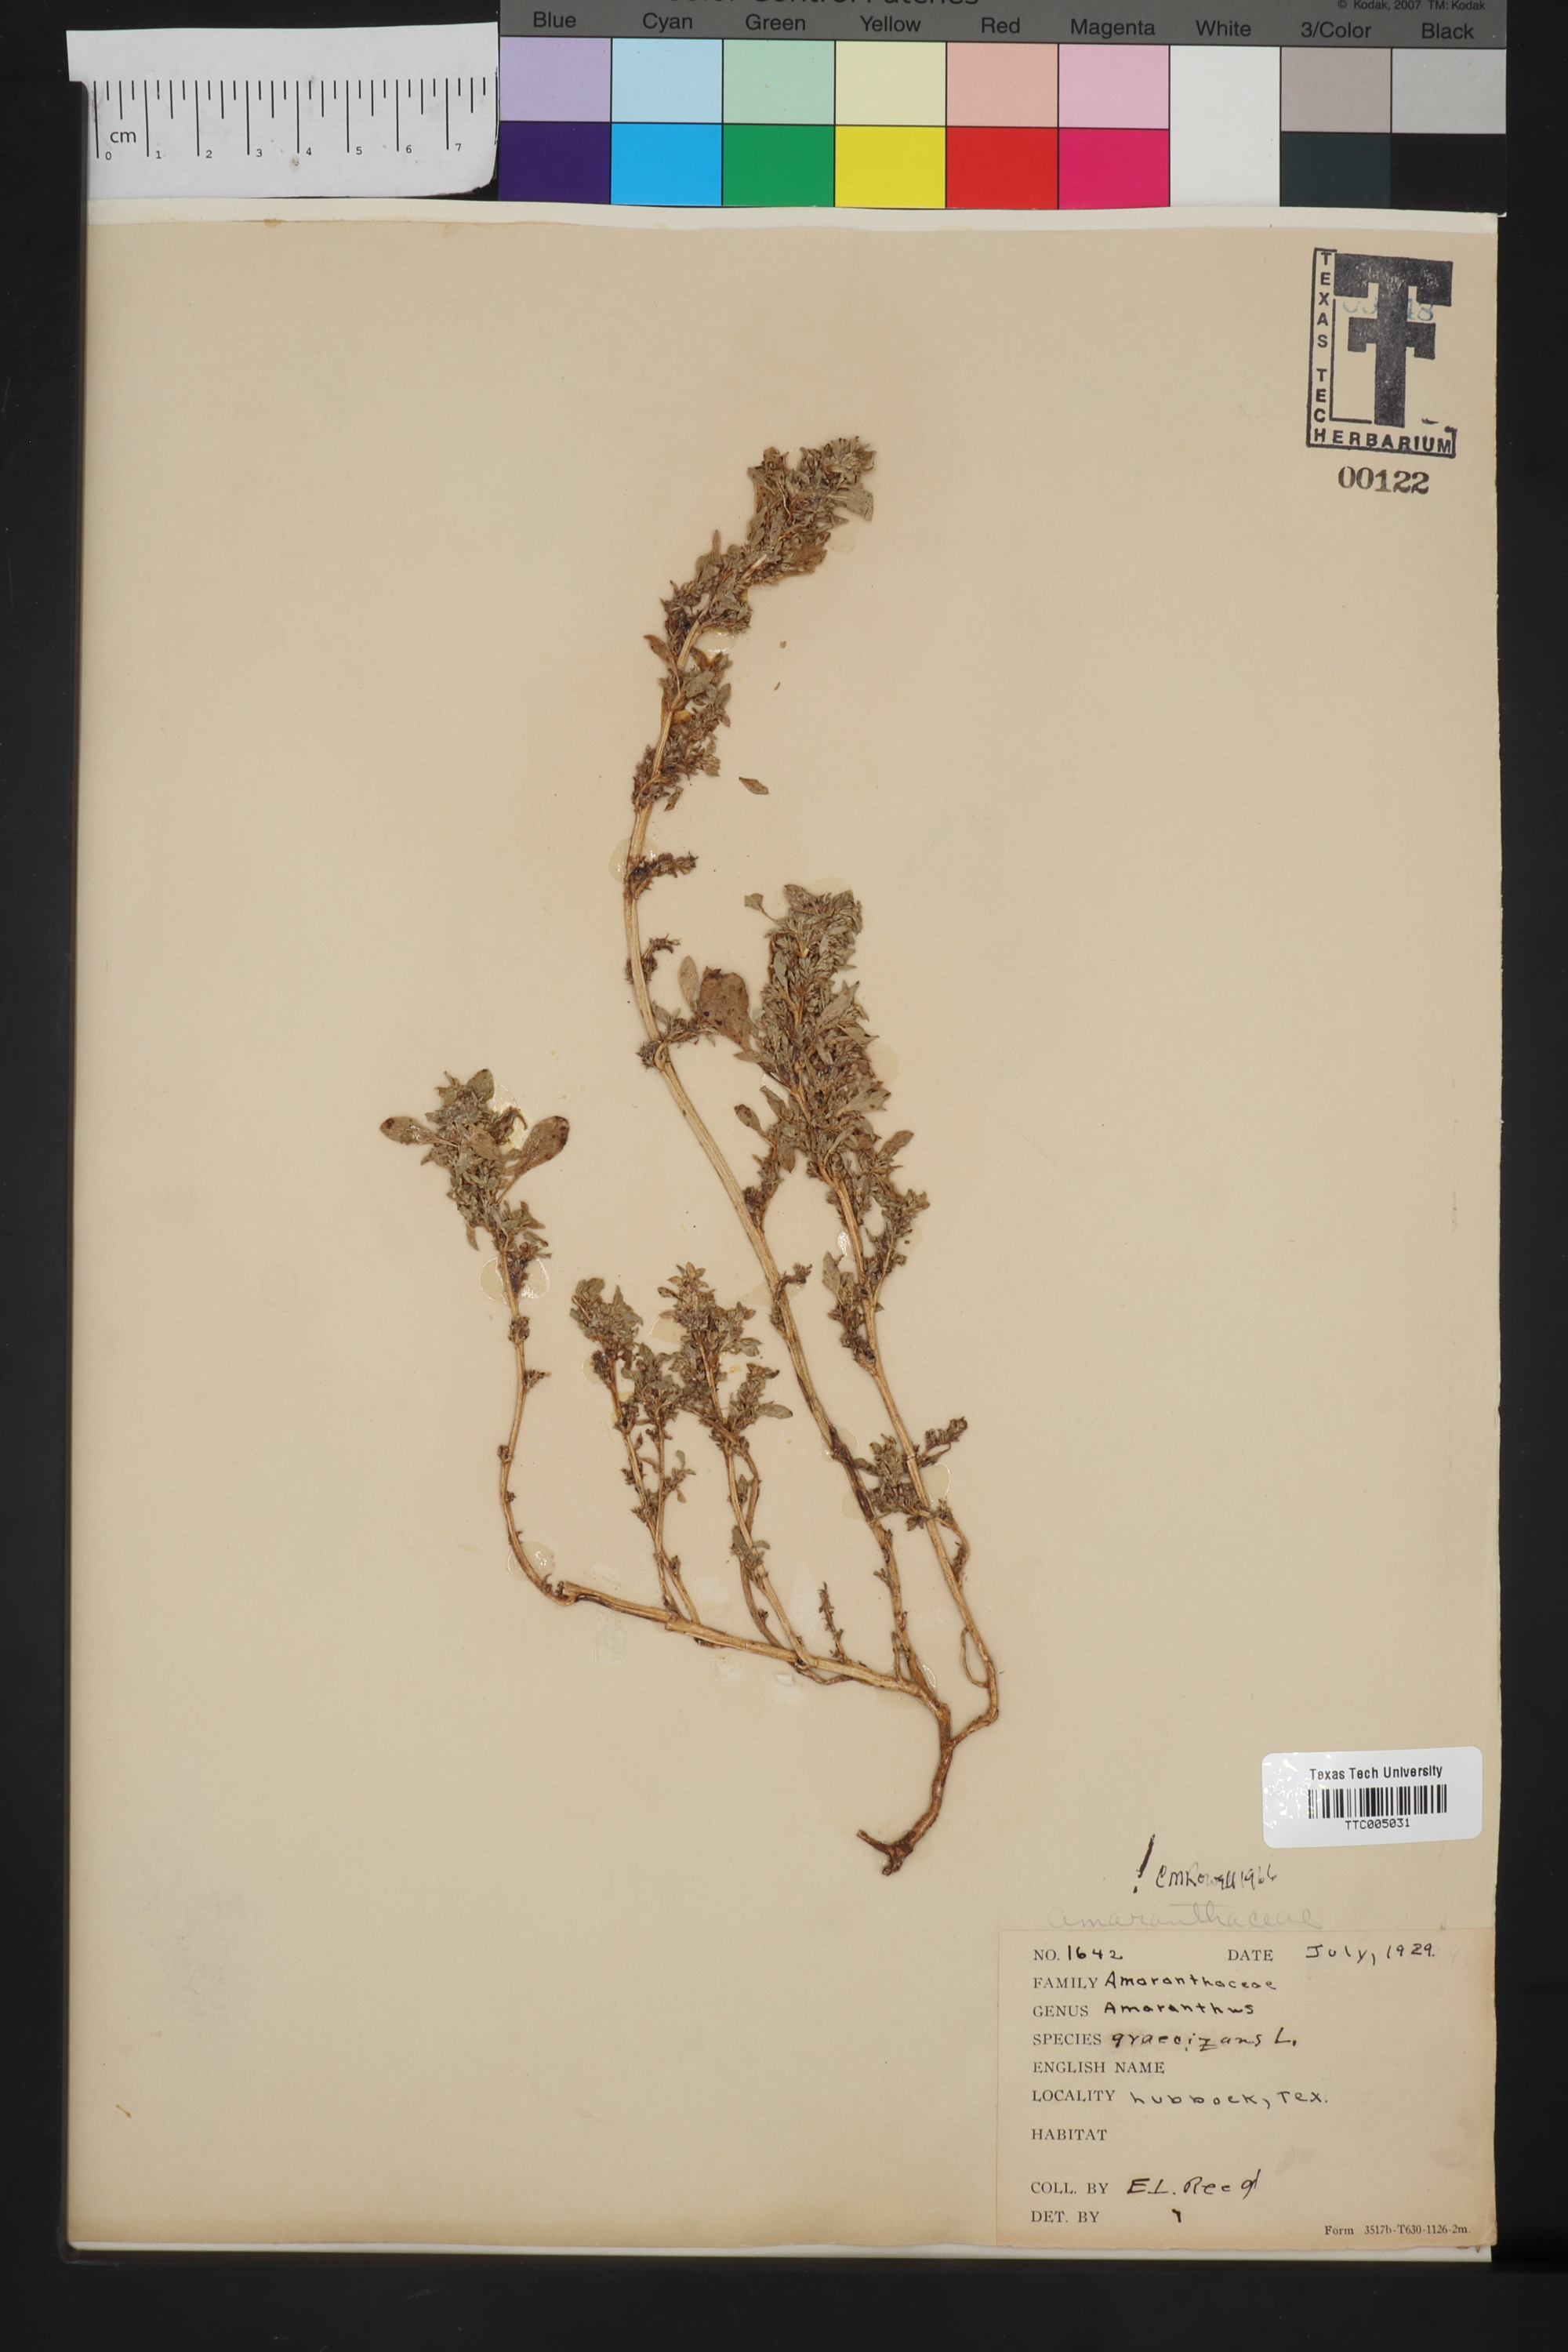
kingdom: Plantae
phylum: Tracheophyta
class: Magnoliopsida
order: Caryophyllales
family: Amaranthaceae
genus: Amaranthus
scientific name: Amaranthus graecizans
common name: Mediterranean amaranth
